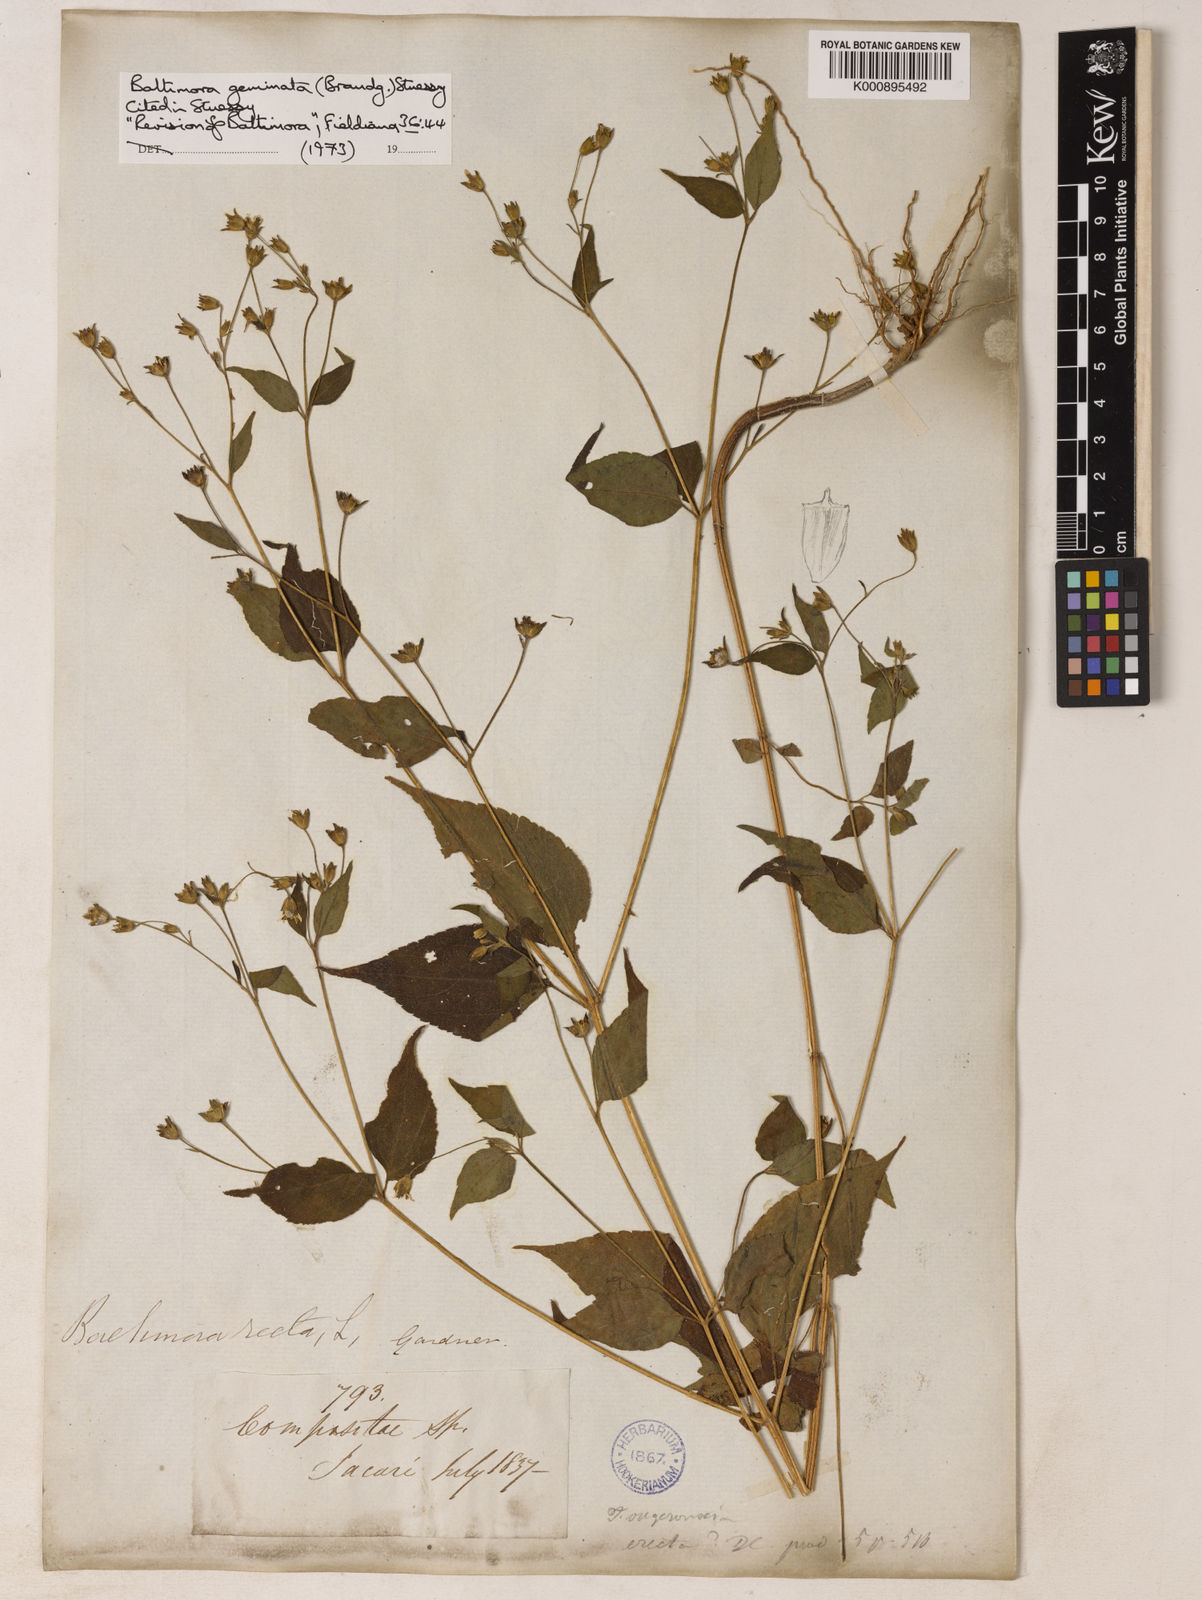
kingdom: Plantae
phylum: Tracheophyta
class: Magnoliopsida
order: Asterales
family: Asteraceae
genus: Baltimora
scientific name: Baltimora
